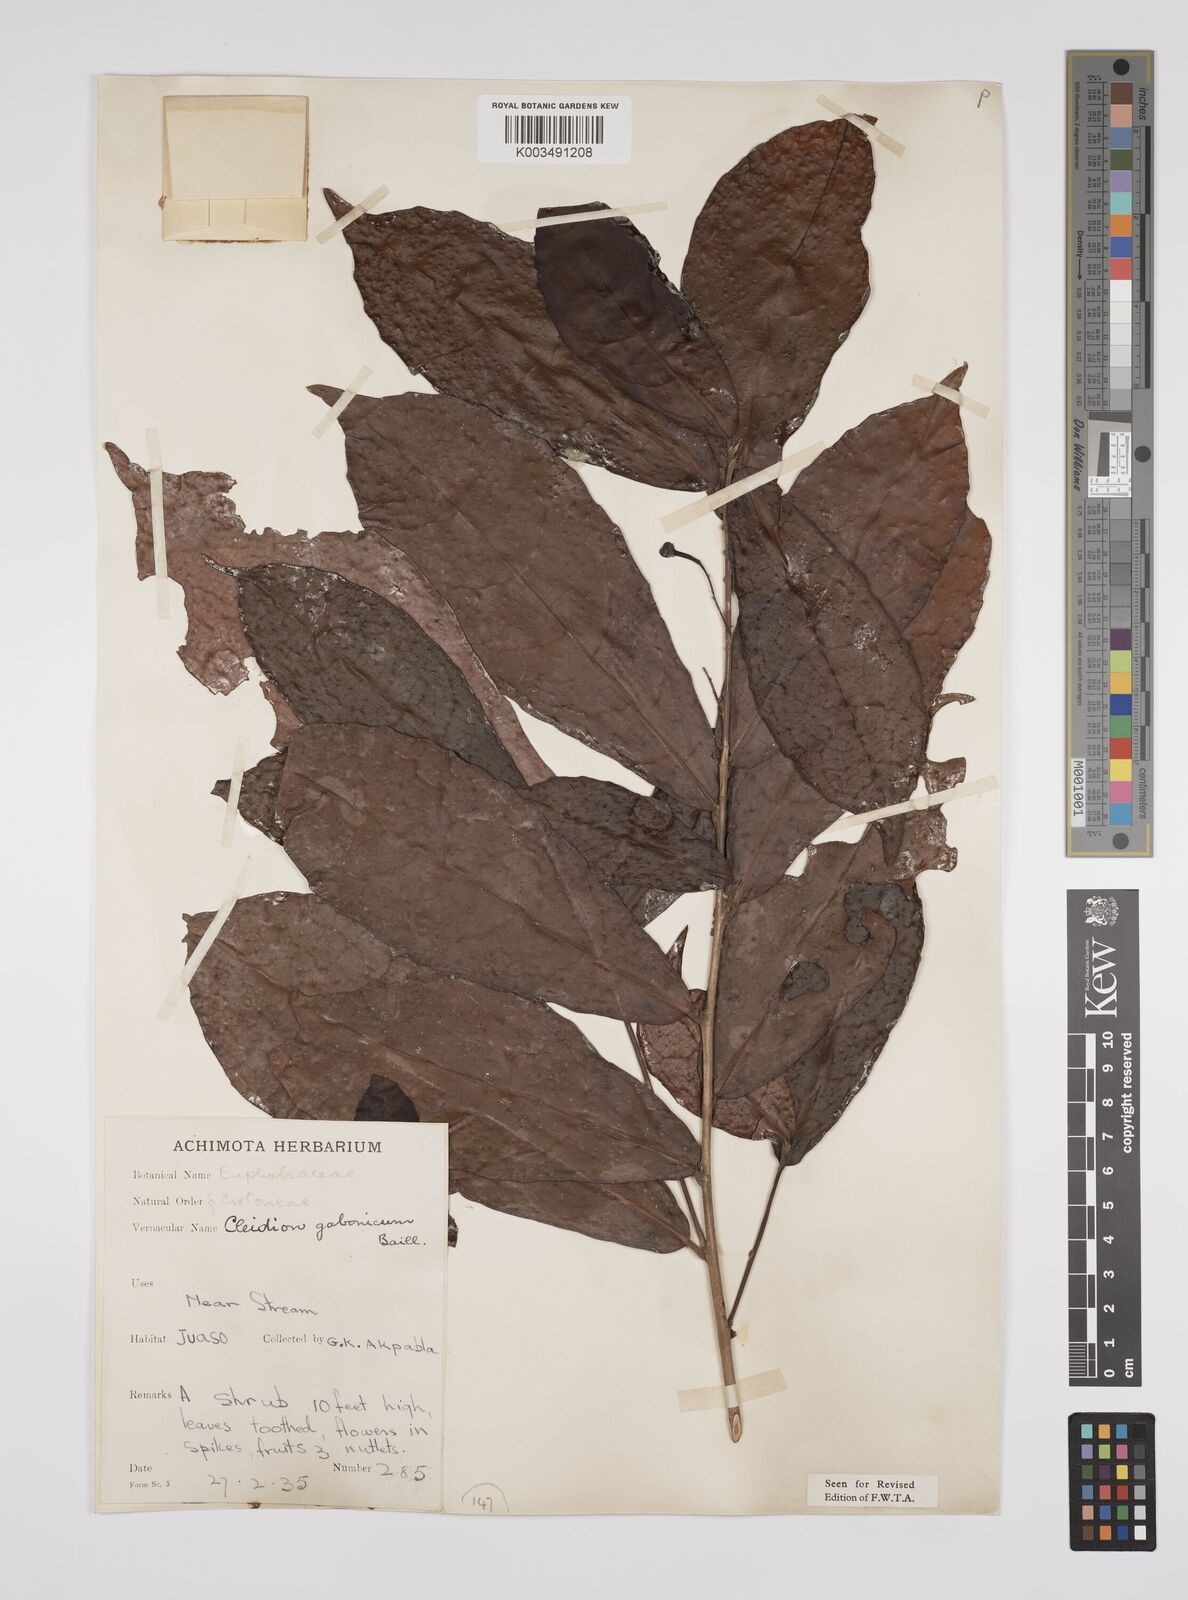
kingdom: Plantae
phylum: Tracheophyta
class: Magnoliopsida
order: Malpighiales
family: Euphorbiaceae
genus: Cleidion
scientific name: Cleidion gabonicum
